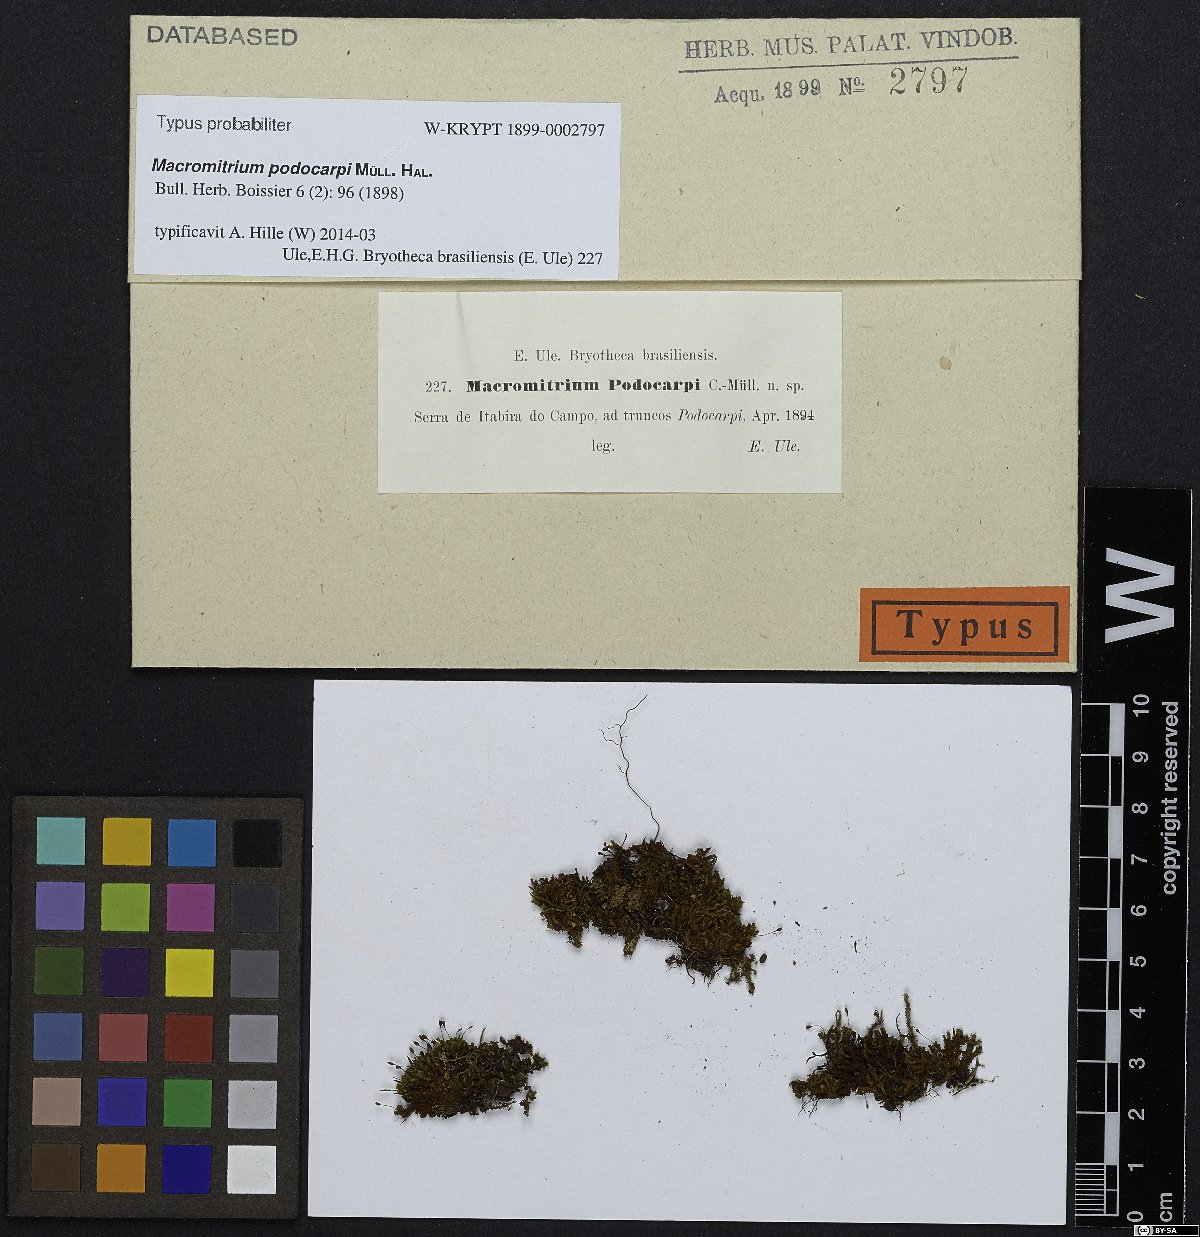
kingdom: Plantae
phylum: Bryophyta
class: Bryopsida
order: Orthotrichales
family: Orthotrichaceae
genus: Macromitrium
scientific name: Macromitrium pseudofimbriatum
